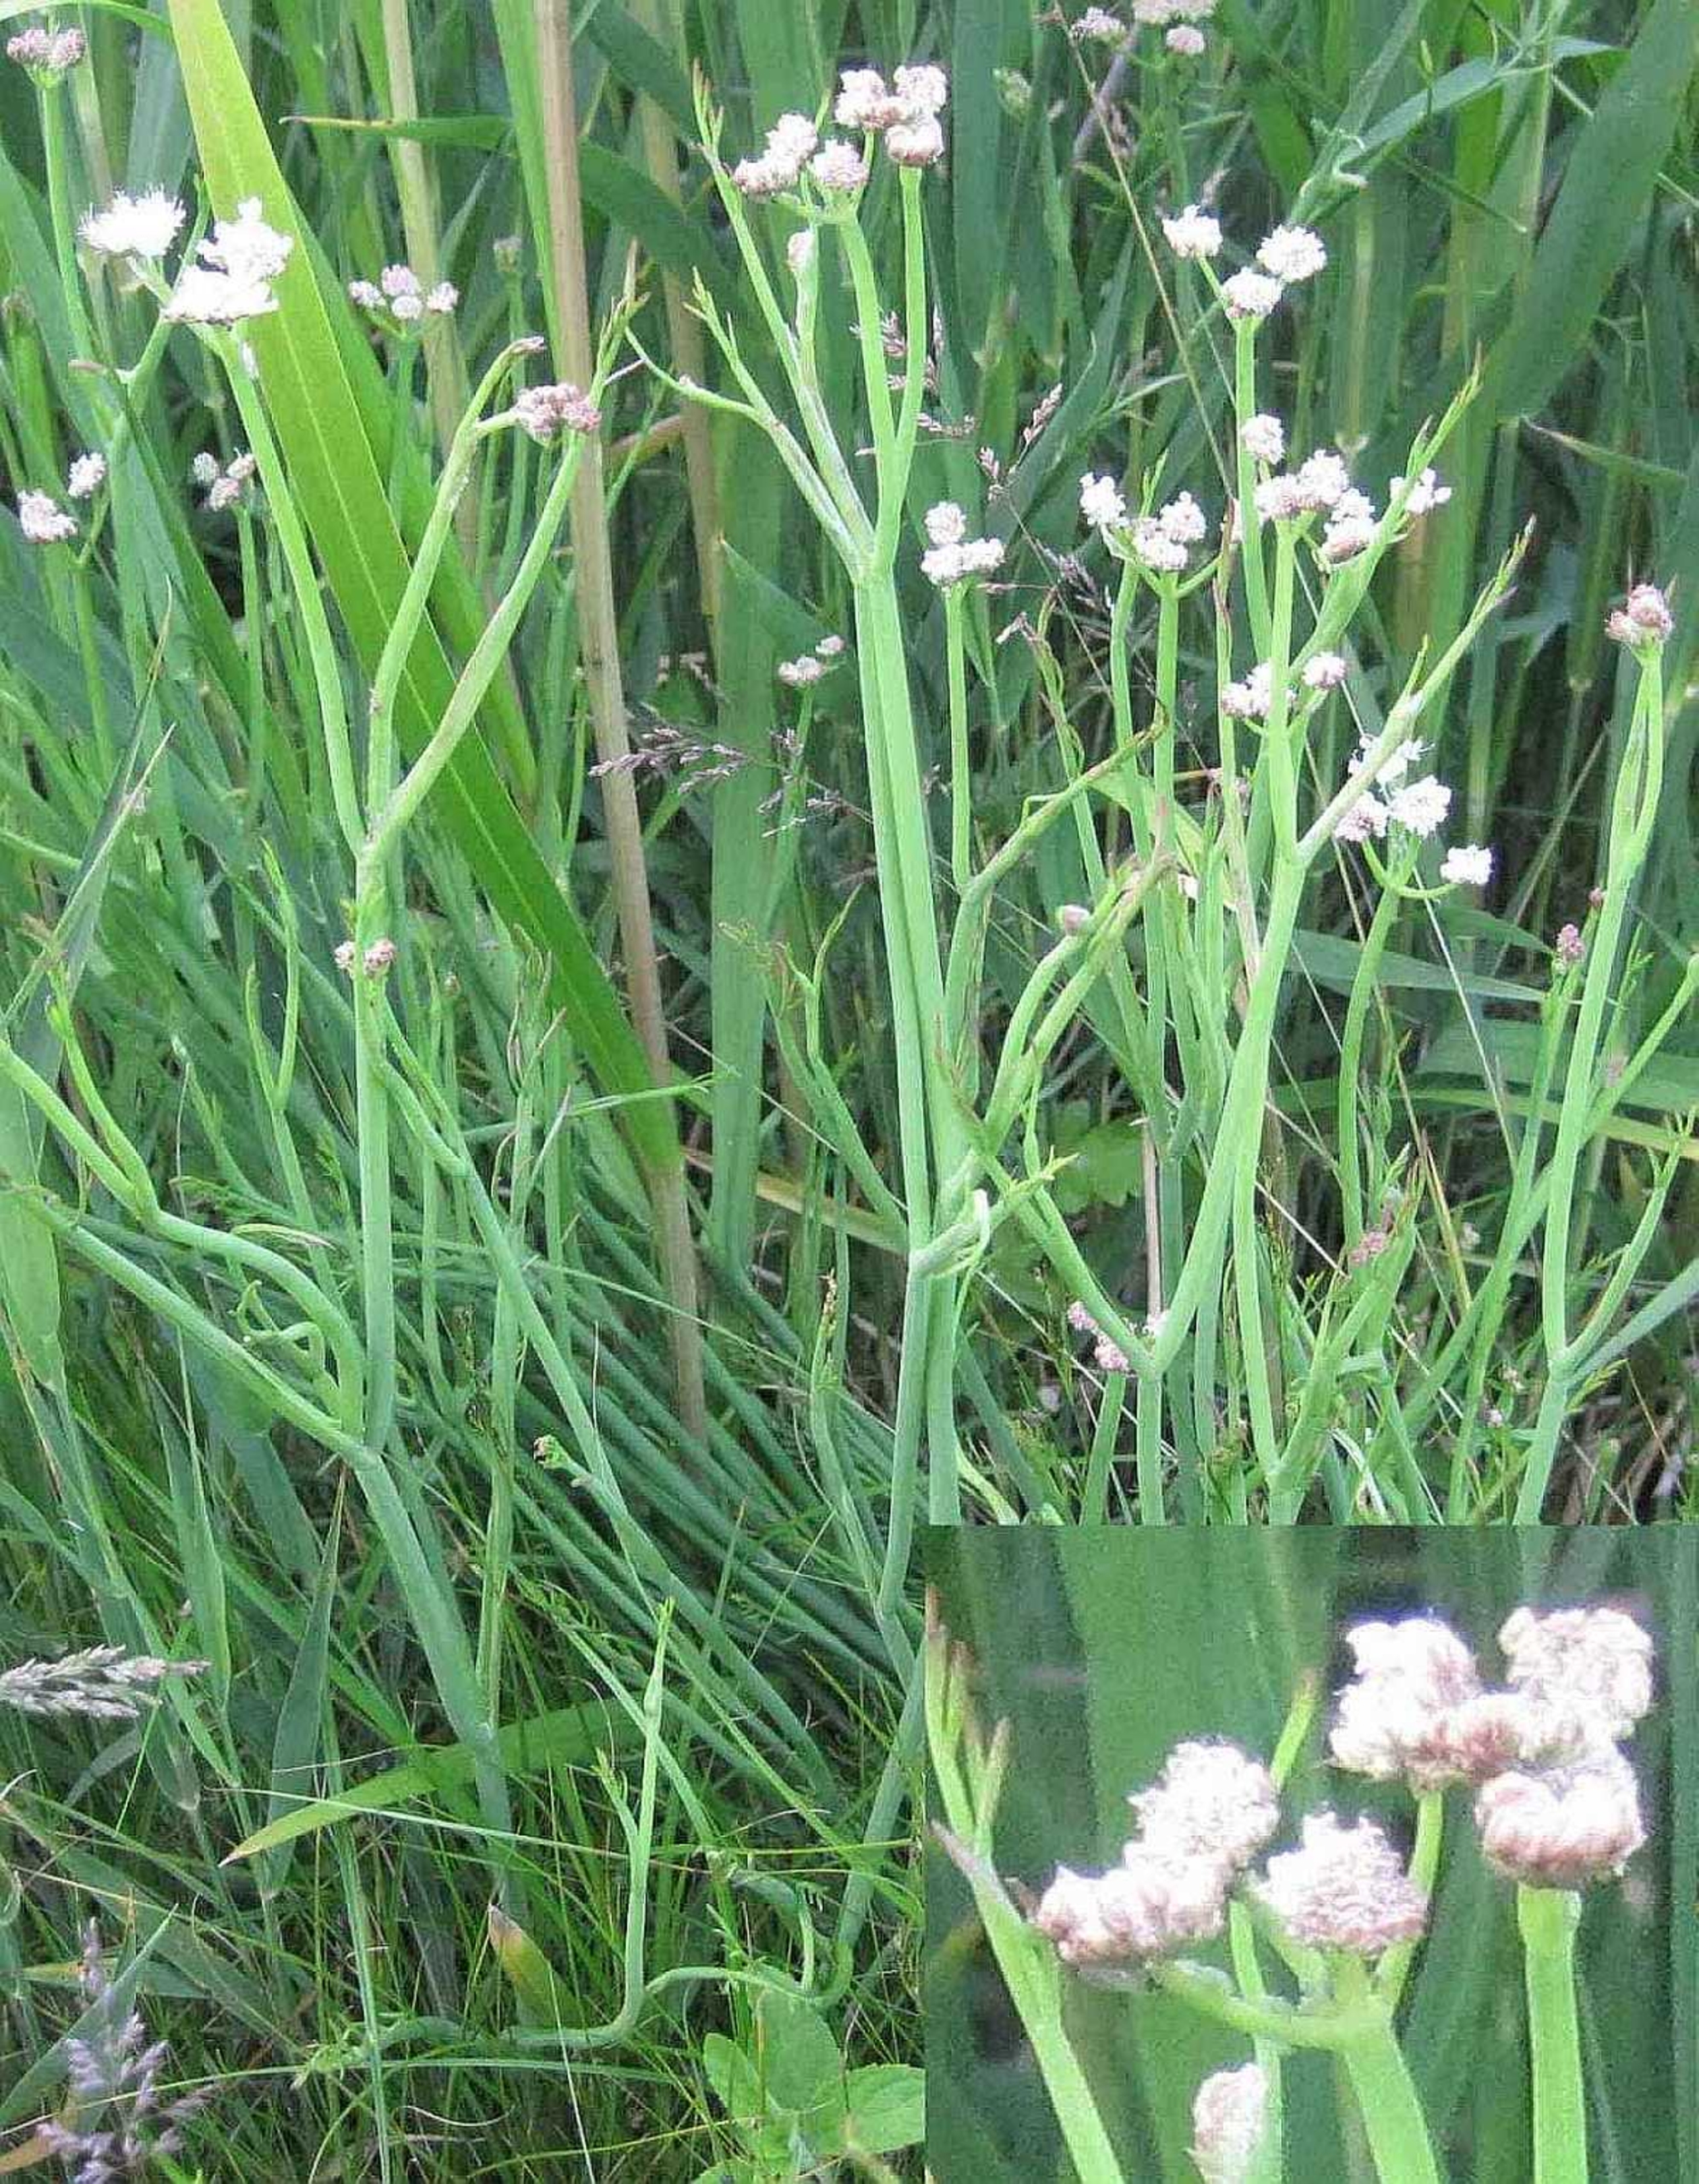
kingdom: Plantae
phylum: Tracheophyta
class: Magnoliopsida
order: Apiales
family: Apiaceae
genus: Oenanthe
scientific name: Oenanthe fistulosa
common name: Vand-klaseskærm
